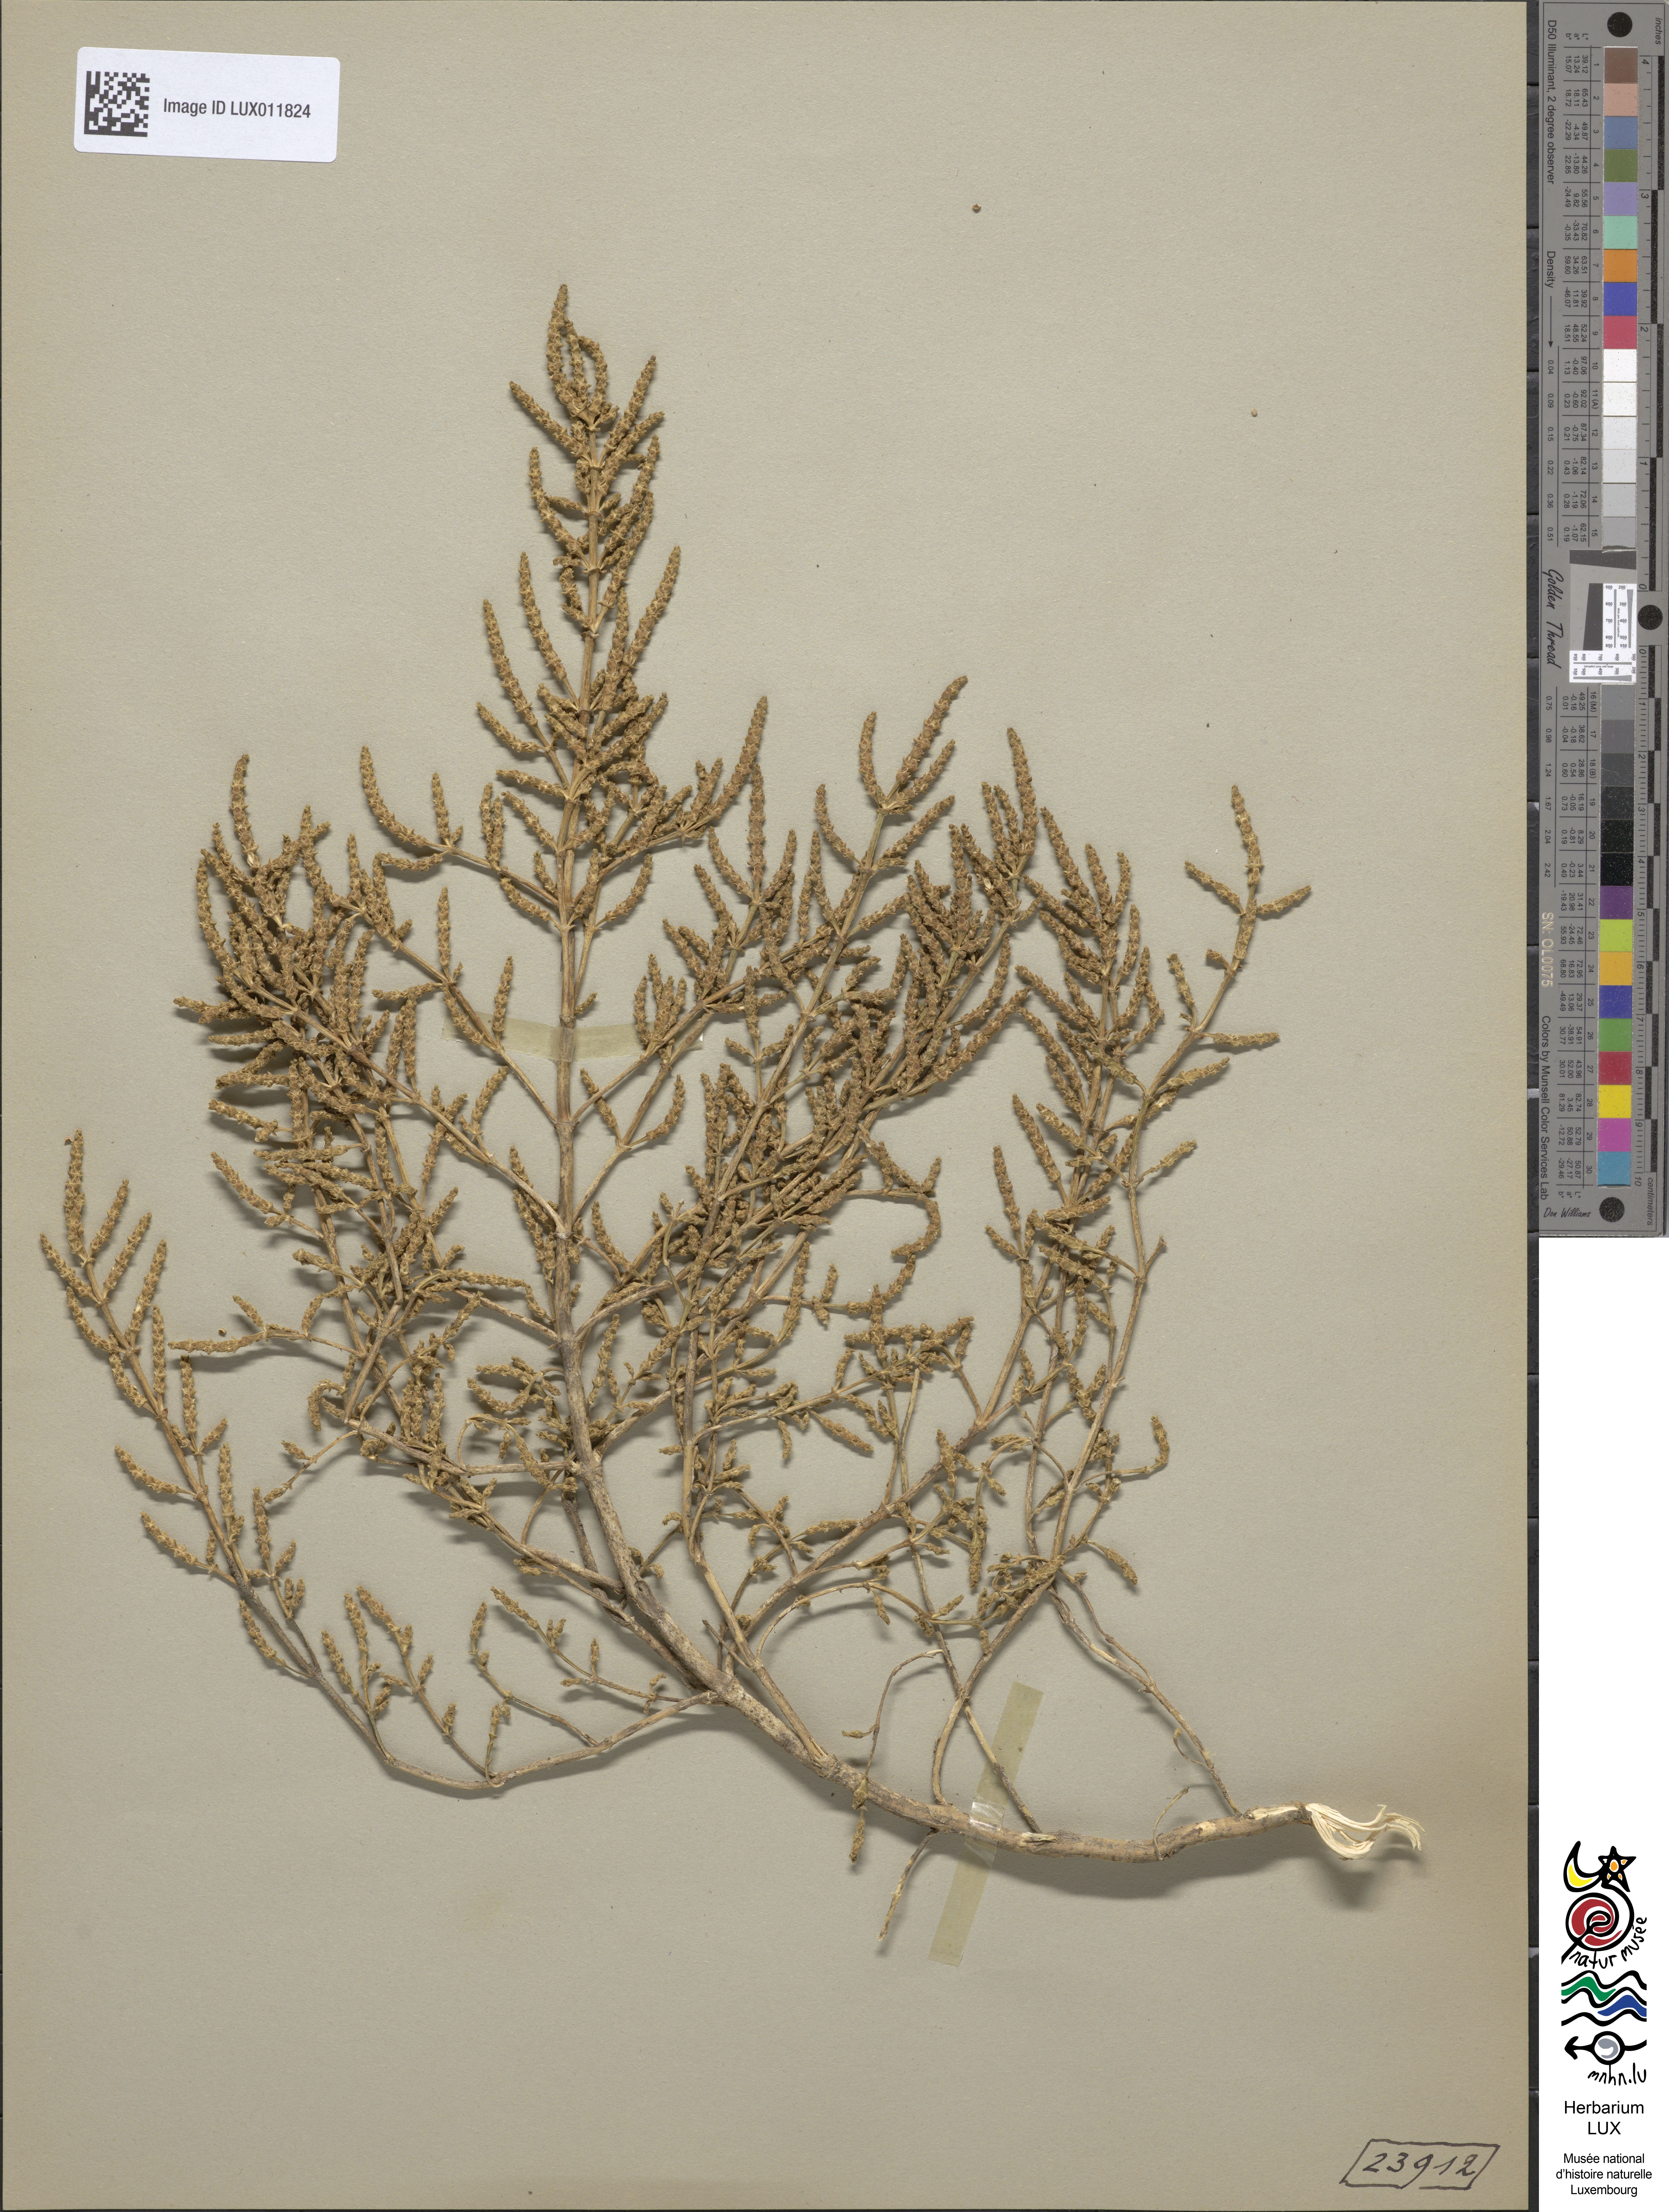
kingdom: Plantae
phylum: Tracheophyta
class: Magnoliopsida
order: Caryophyllales
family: Amaranthaceae
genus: Salicornia
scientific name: Salicornia europaea
